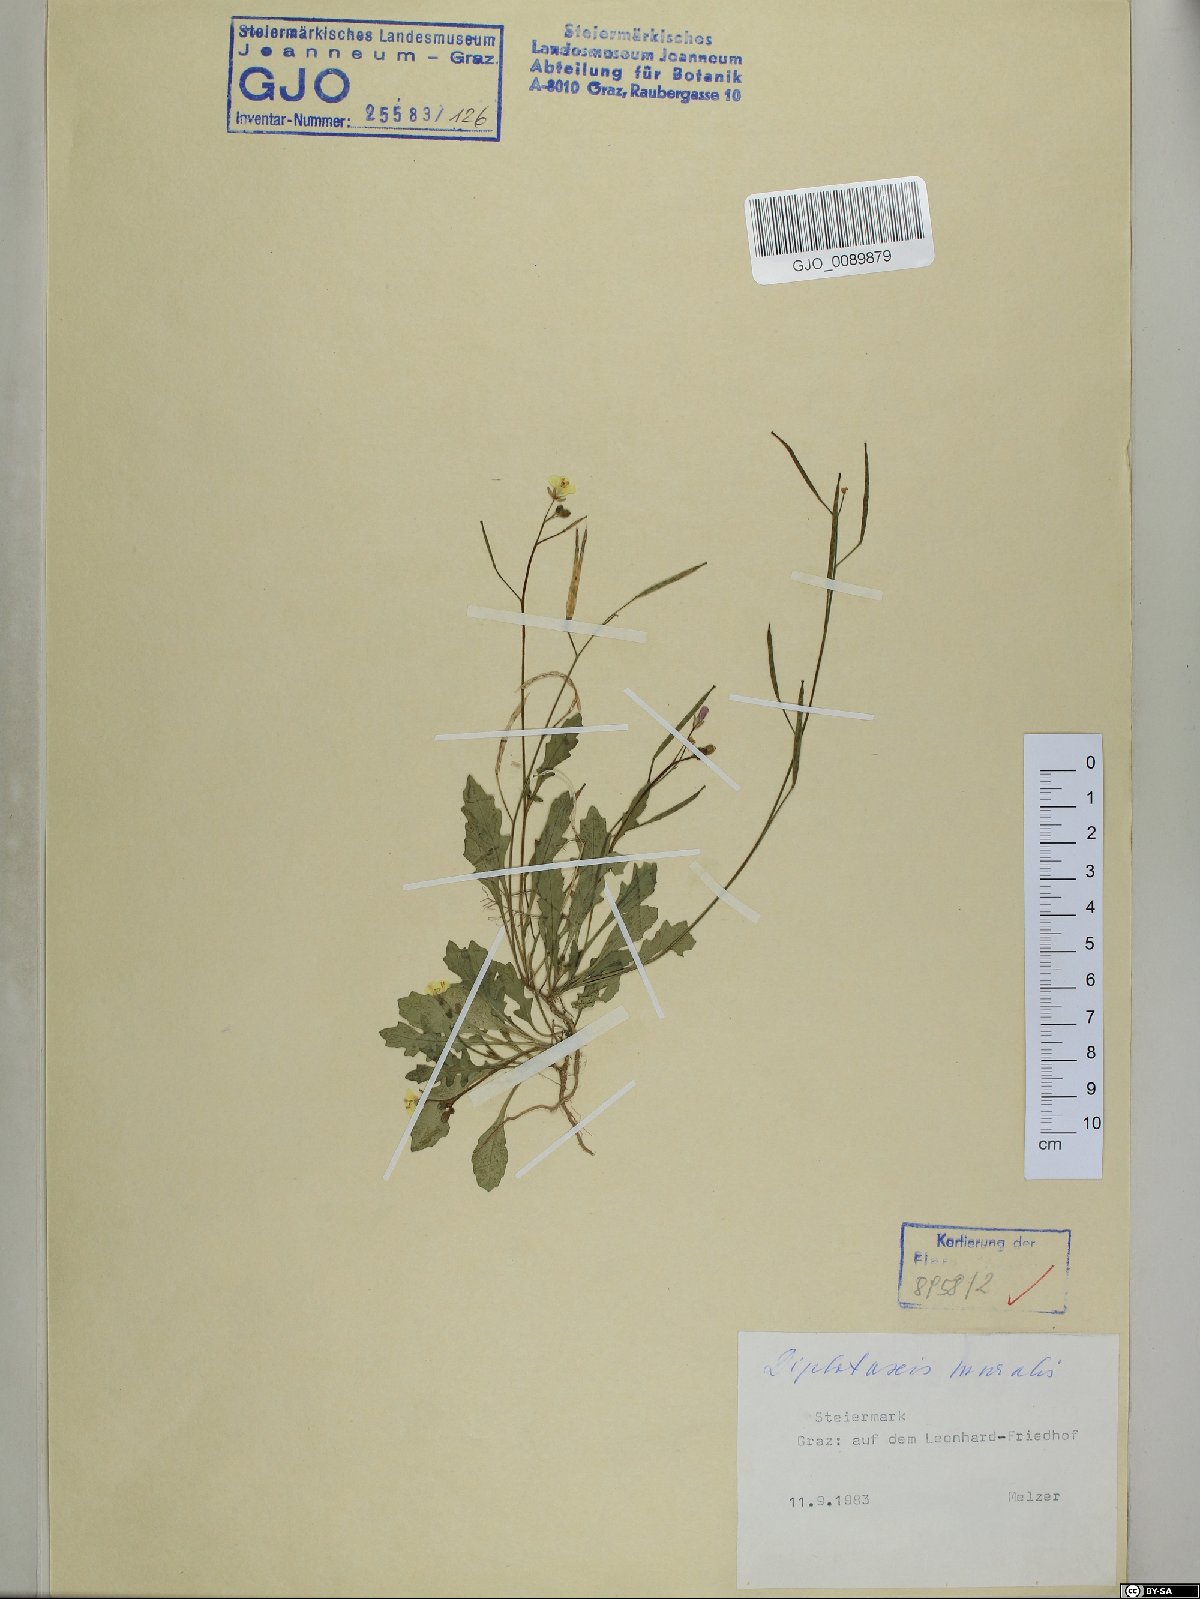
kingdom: Plantae
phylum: Tracheophyta
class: Magnoliopsida
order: Brassicales
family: Brassicaceae
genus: Diplotaxis
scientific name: Diplotaxis muralis
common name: Annual wall-rocket
